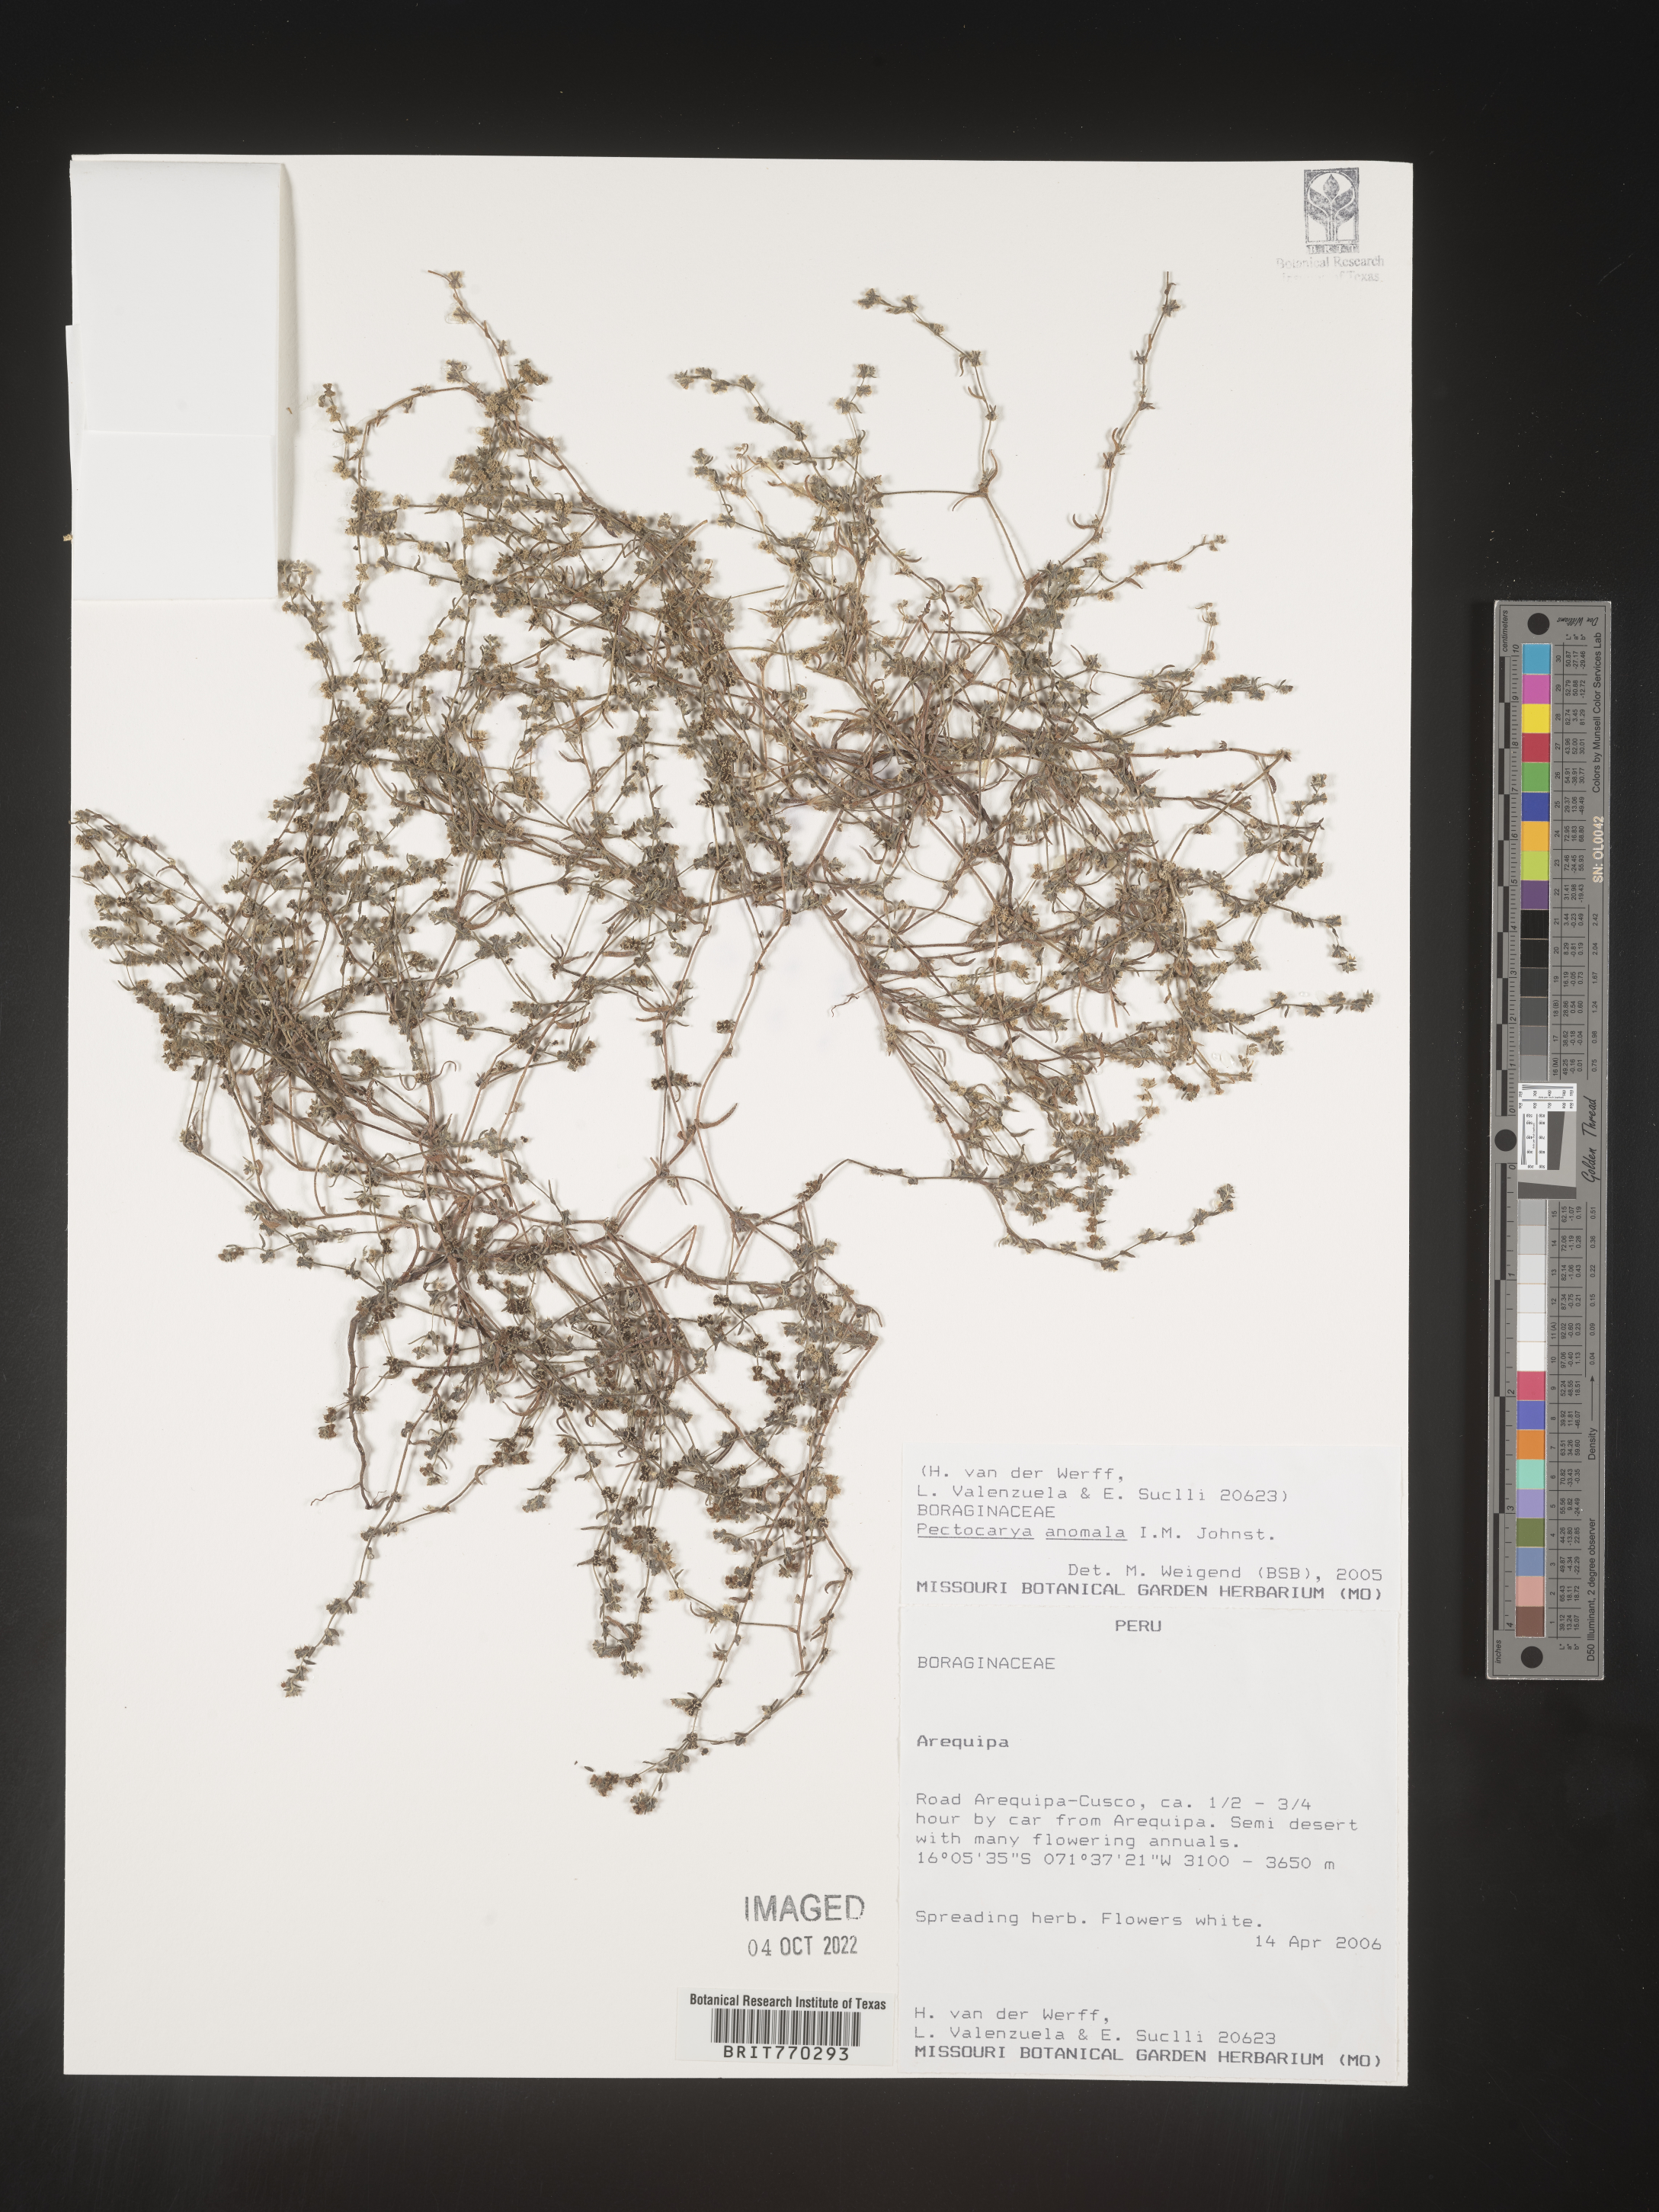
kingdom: Plantae
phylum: Tracheophyta
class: Magnoliopsida
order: Boraginales
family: Boraginaceae
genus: Pectocarya
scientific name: Pectocarya
